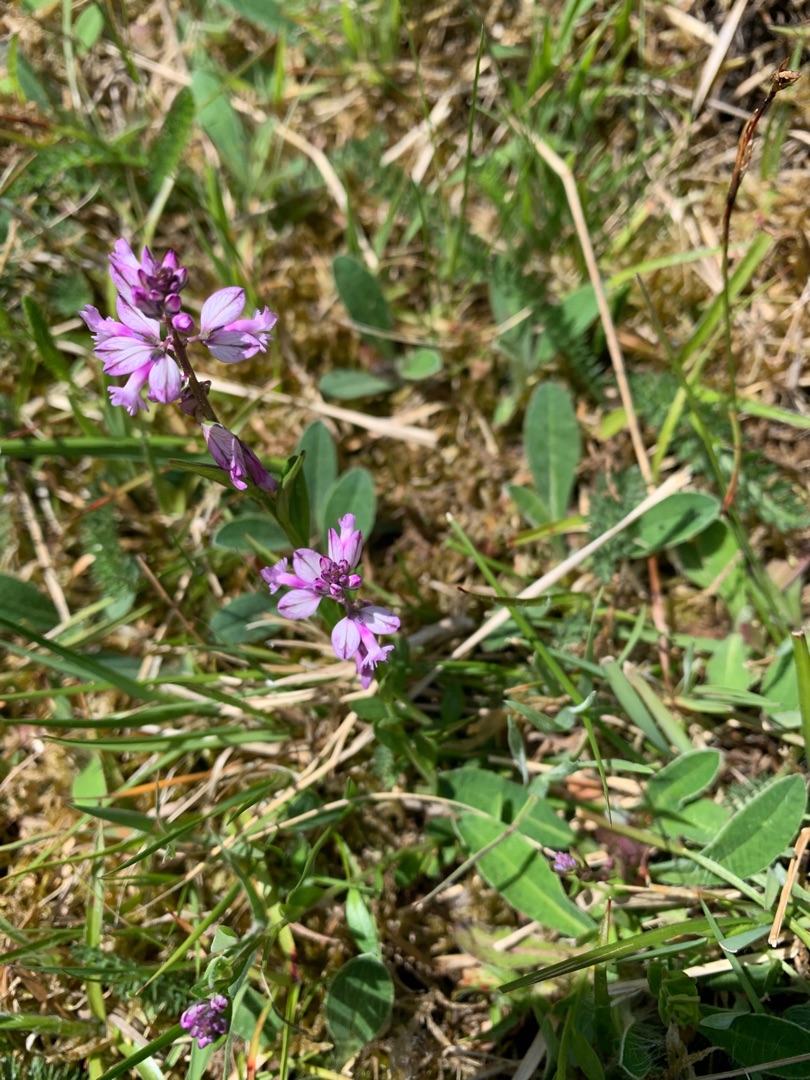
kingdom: Plantae
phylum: Tracheophyta
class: Magnoliopsida
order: Fabales
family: Polygalaceae
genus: Polygala
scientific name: Polygala vulgaris
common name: Almindelig mælkeurt
